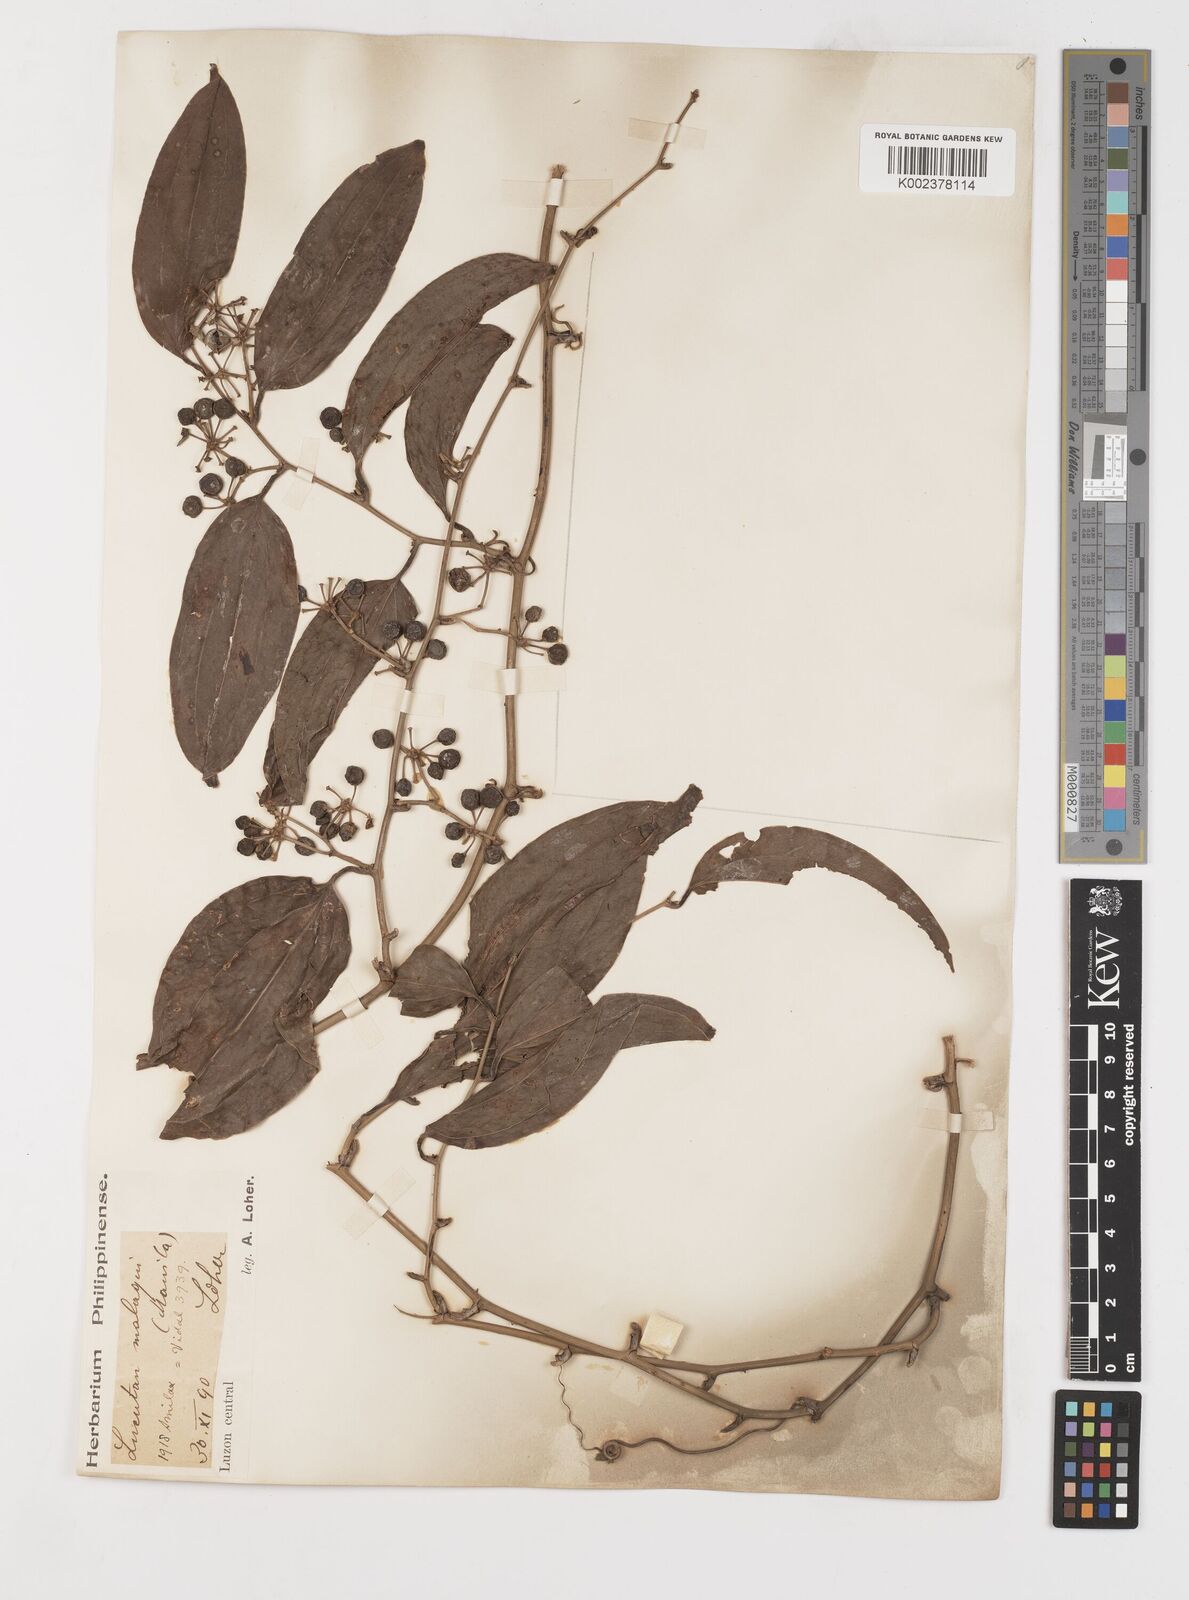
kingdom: Plantae
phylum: Tracheophyta
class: Liliopsida
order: Liliales
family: Smilacaceae
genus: Smilax
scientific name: Smilax
